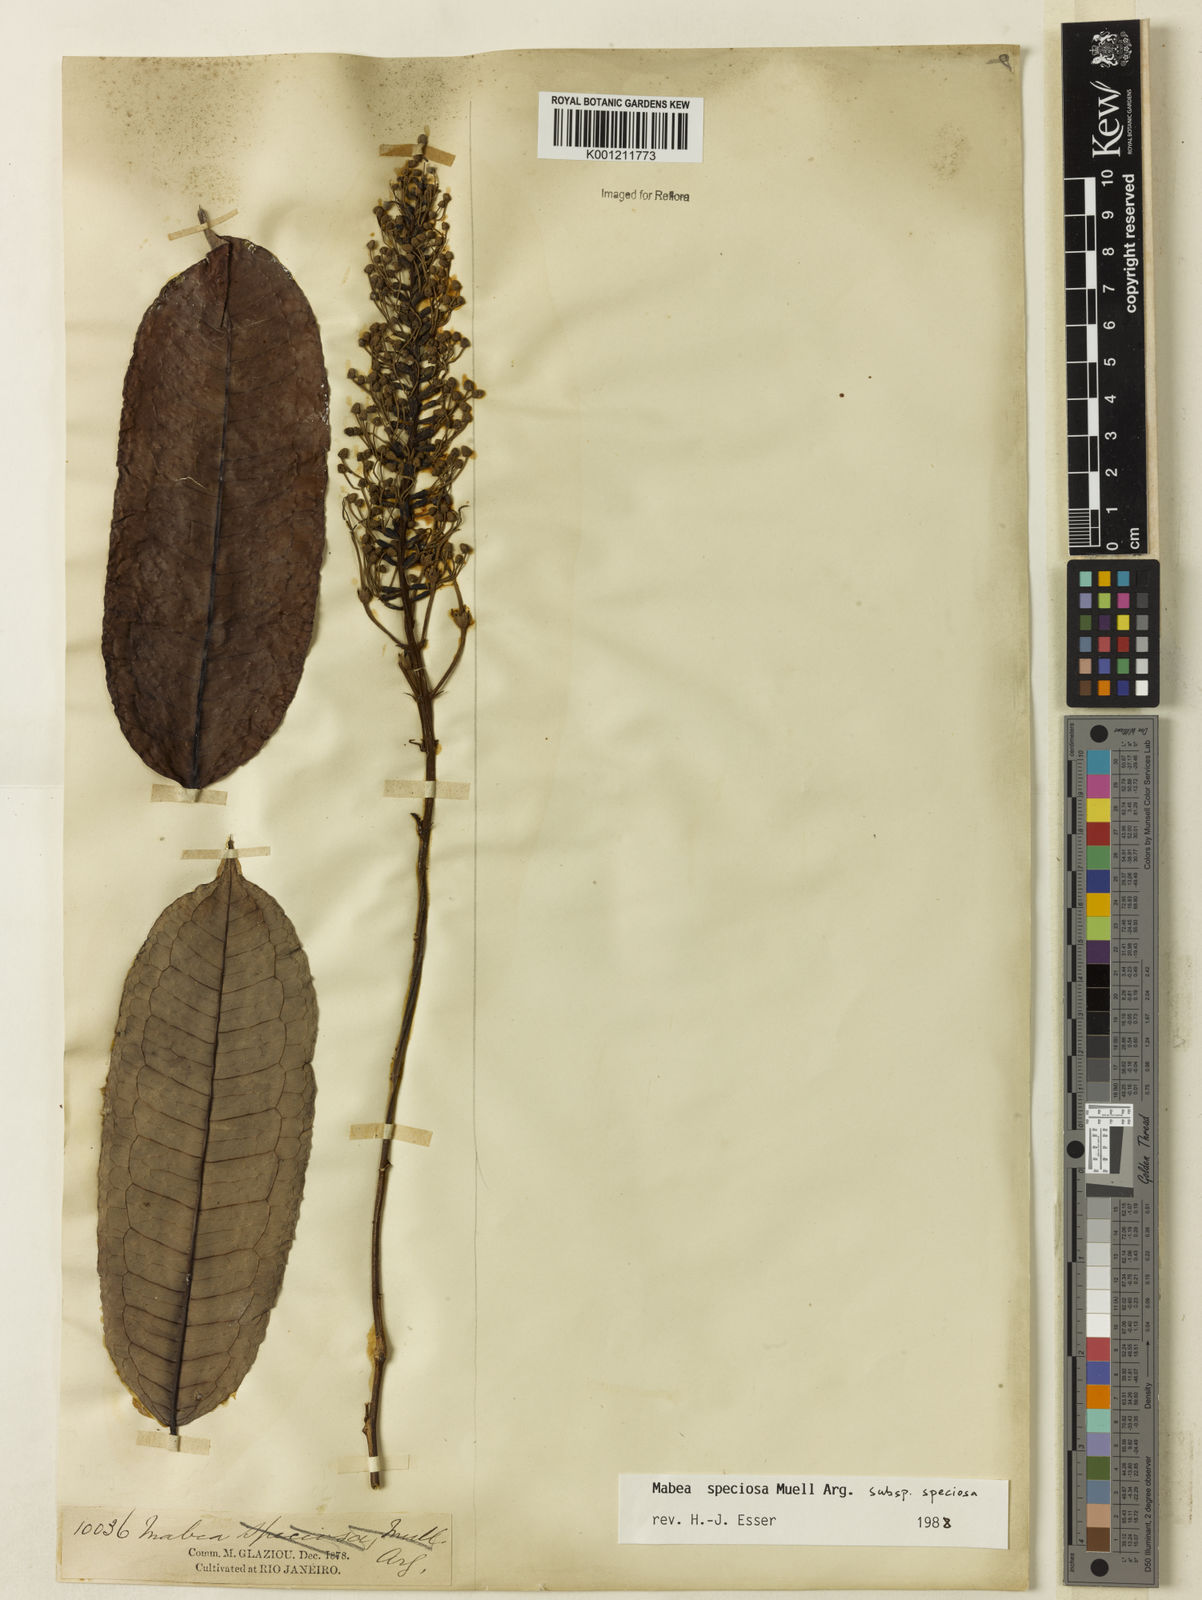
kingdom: Plantae
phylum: Tracheophyta
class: Magnoliopsida
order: Malpighiales
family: Euphorbiaceae
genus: Mabea
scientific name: Mabea
